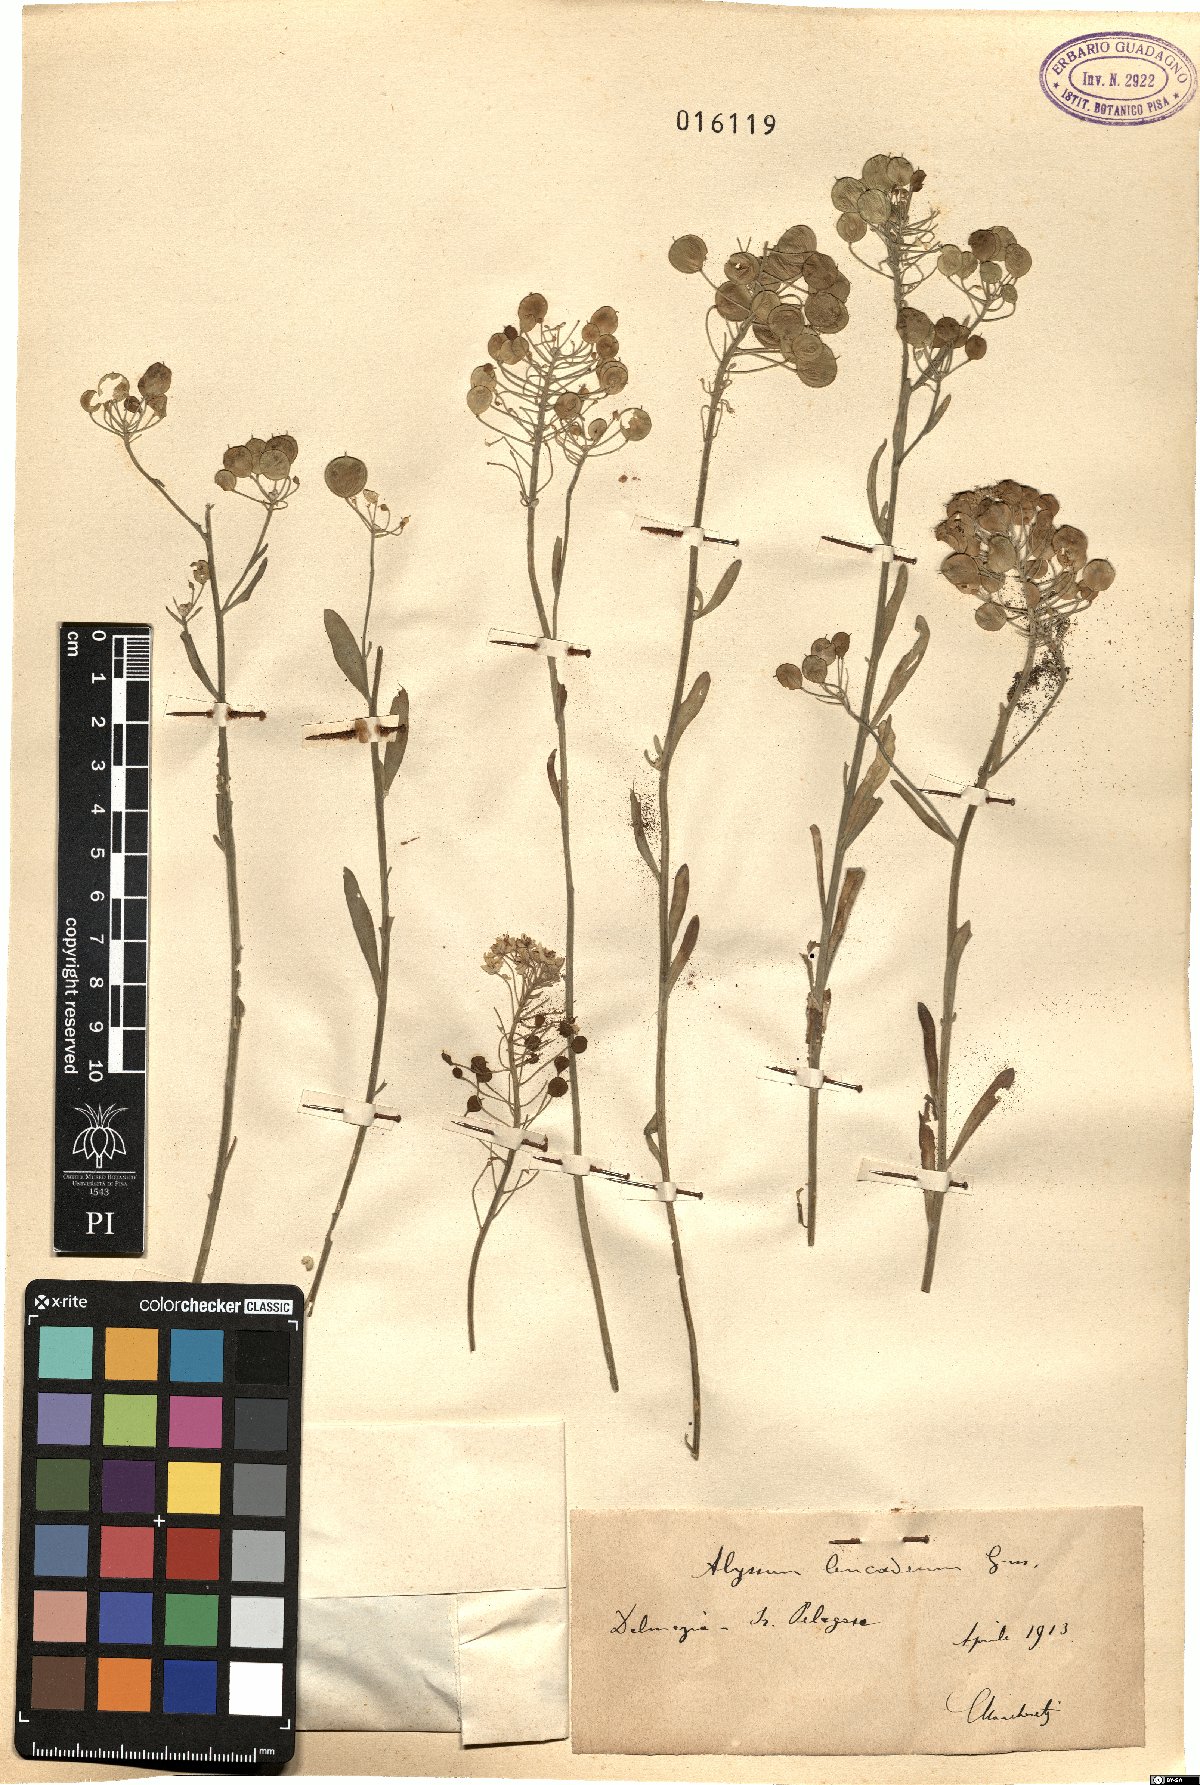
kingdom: Plantae
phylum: Tracheophyta
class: Magnoliopsida
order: Brassicales
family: Brassicaceae
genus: Aurinia
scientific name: Aurinia leucadea
